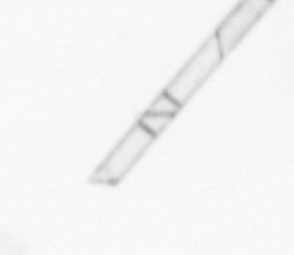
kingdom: Chromista
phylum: Ochrophyta
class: Bacillariophyceae
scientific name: Bacillariophyceae
